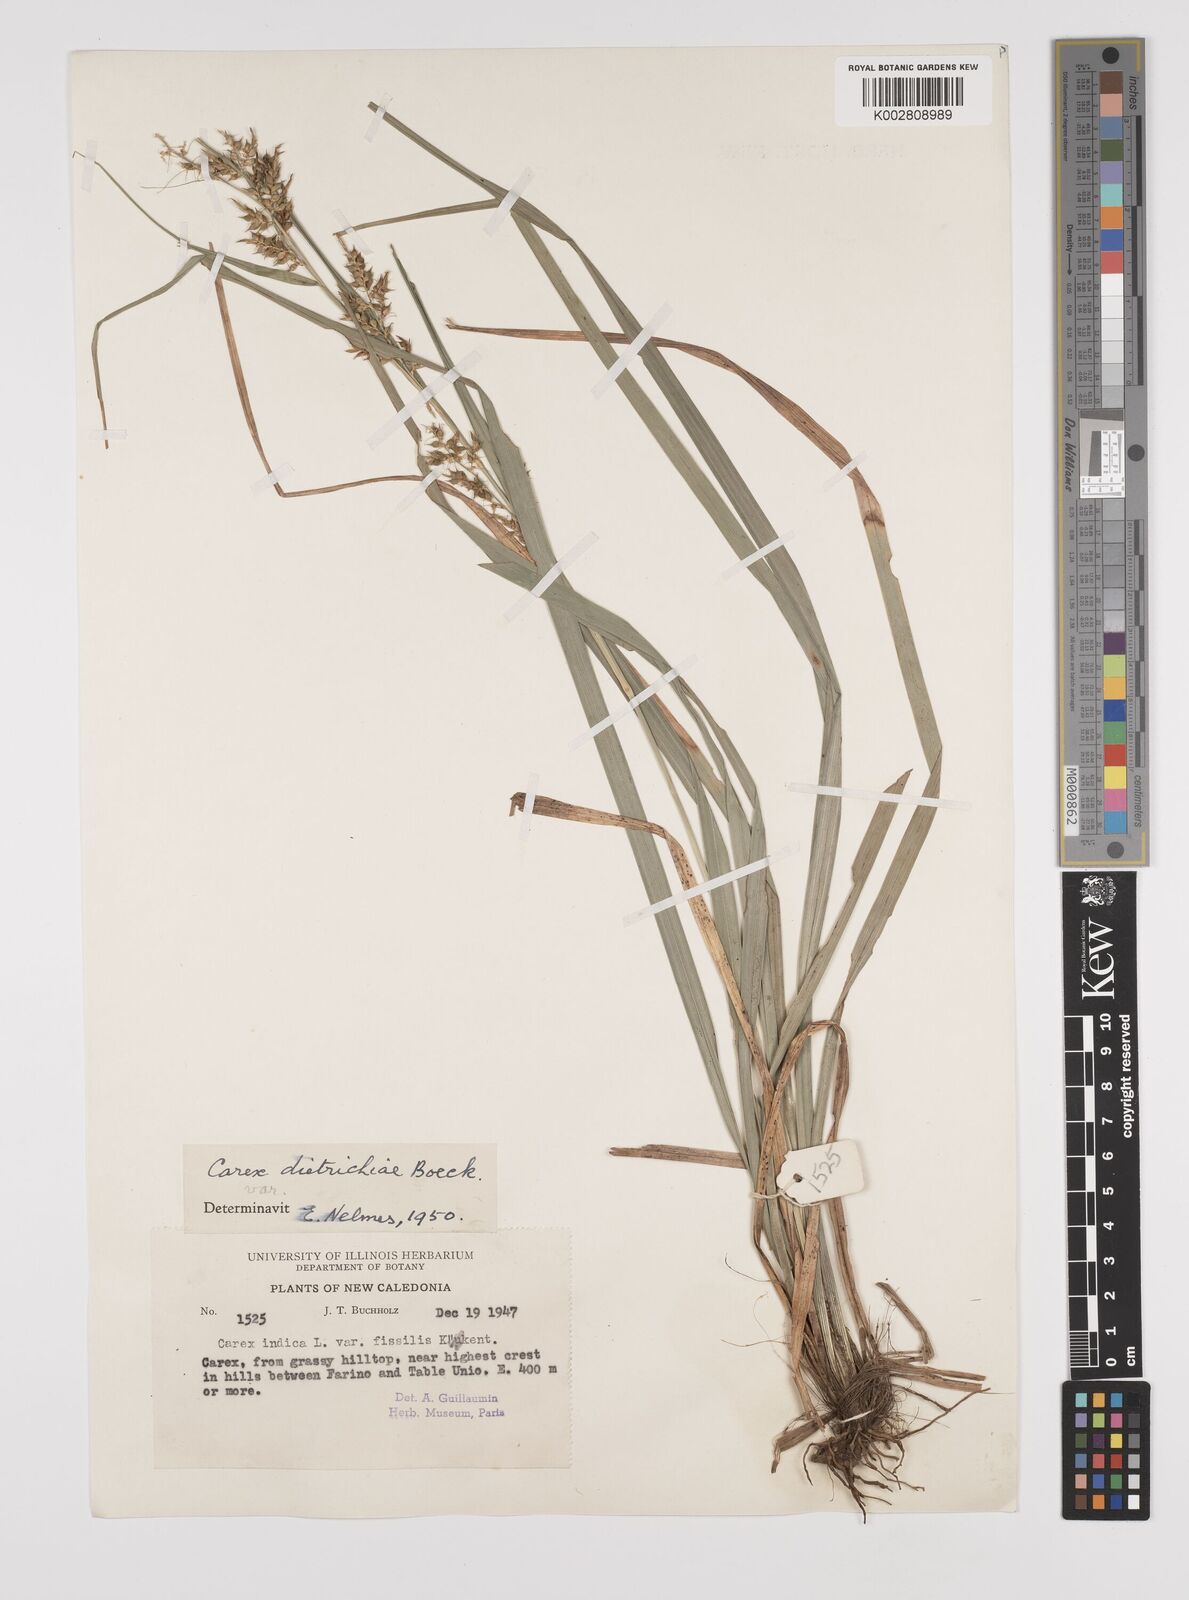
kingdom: Plantae
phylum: Tracheophyta
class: Liliopsida
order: Poales
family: Cyperaceae
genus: Carex
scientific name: Carex indica
